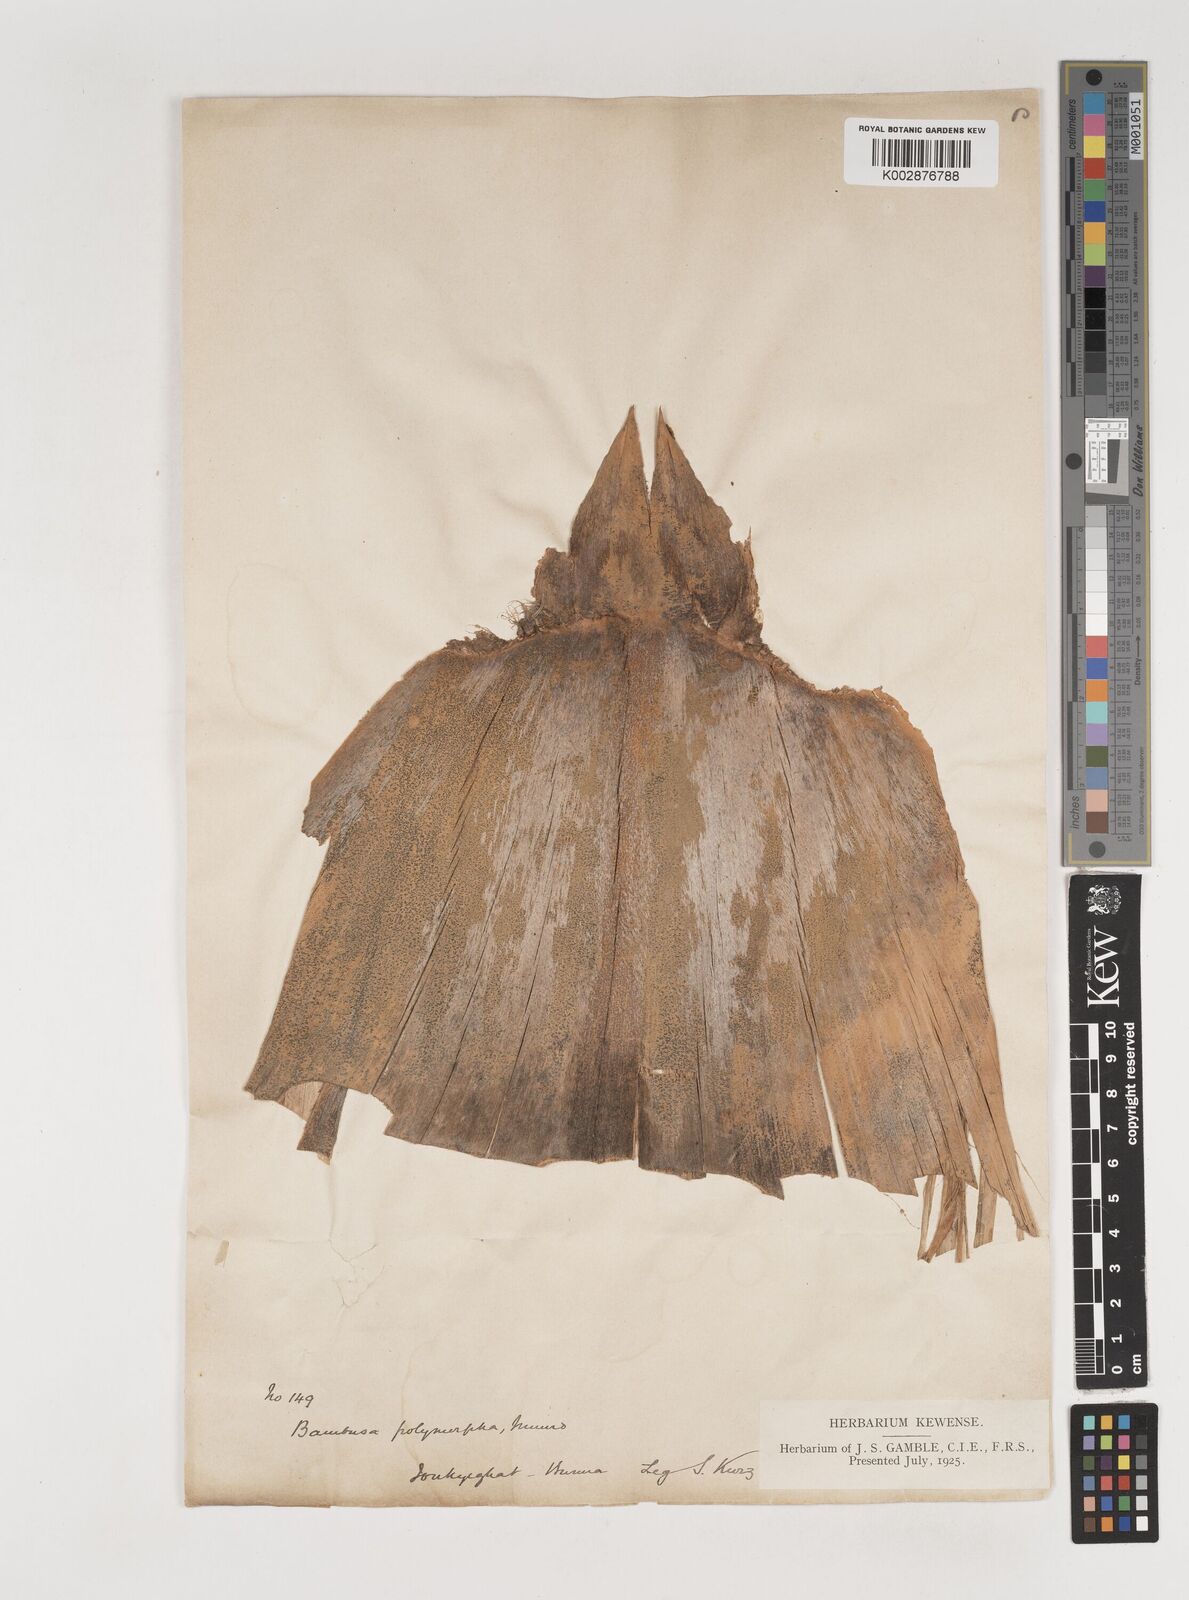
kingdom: Plantae
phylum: Tracheophyta
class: Liliopsida
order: Poales
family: Poaceae
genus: Bambusa
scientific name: Bambusa polymorpha
